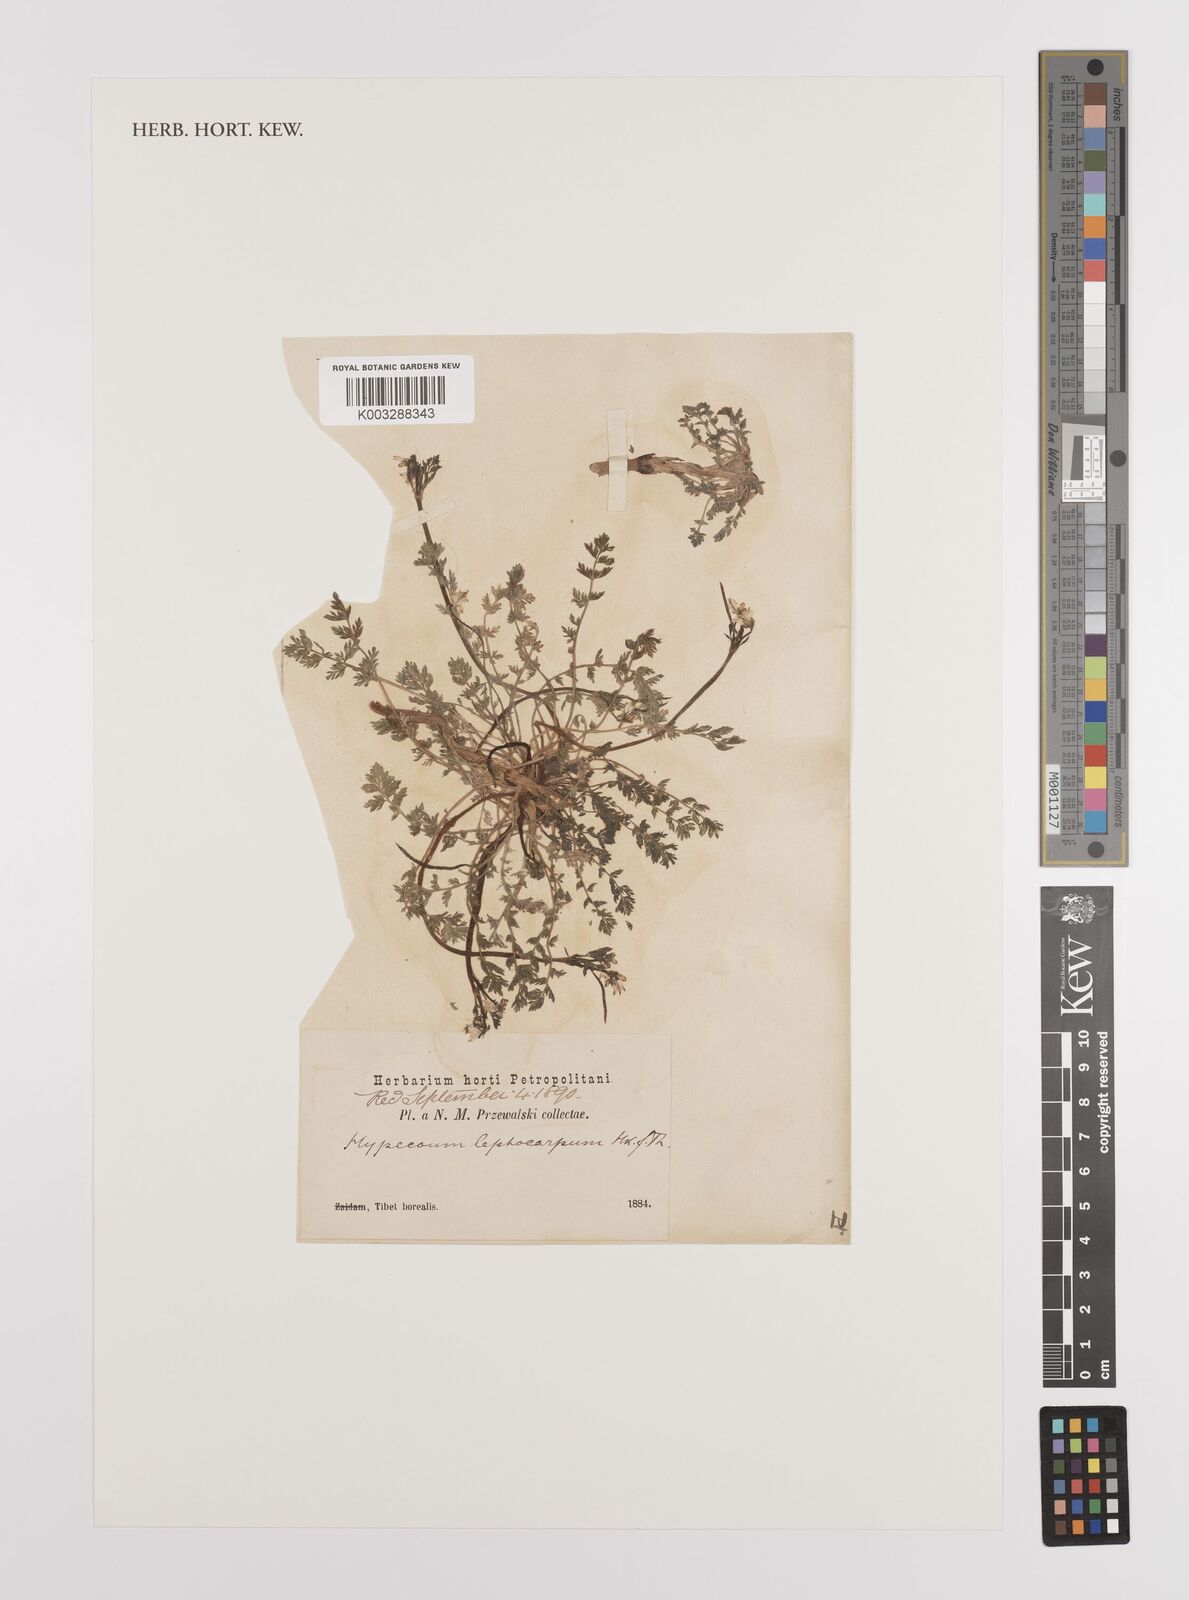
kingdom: Plantae
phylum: Tracheophyta
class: Magnoliopsida
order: Ranunculales
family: Papaveraceae
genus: Hypecoum
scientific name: Hypecoum leptocarpum
